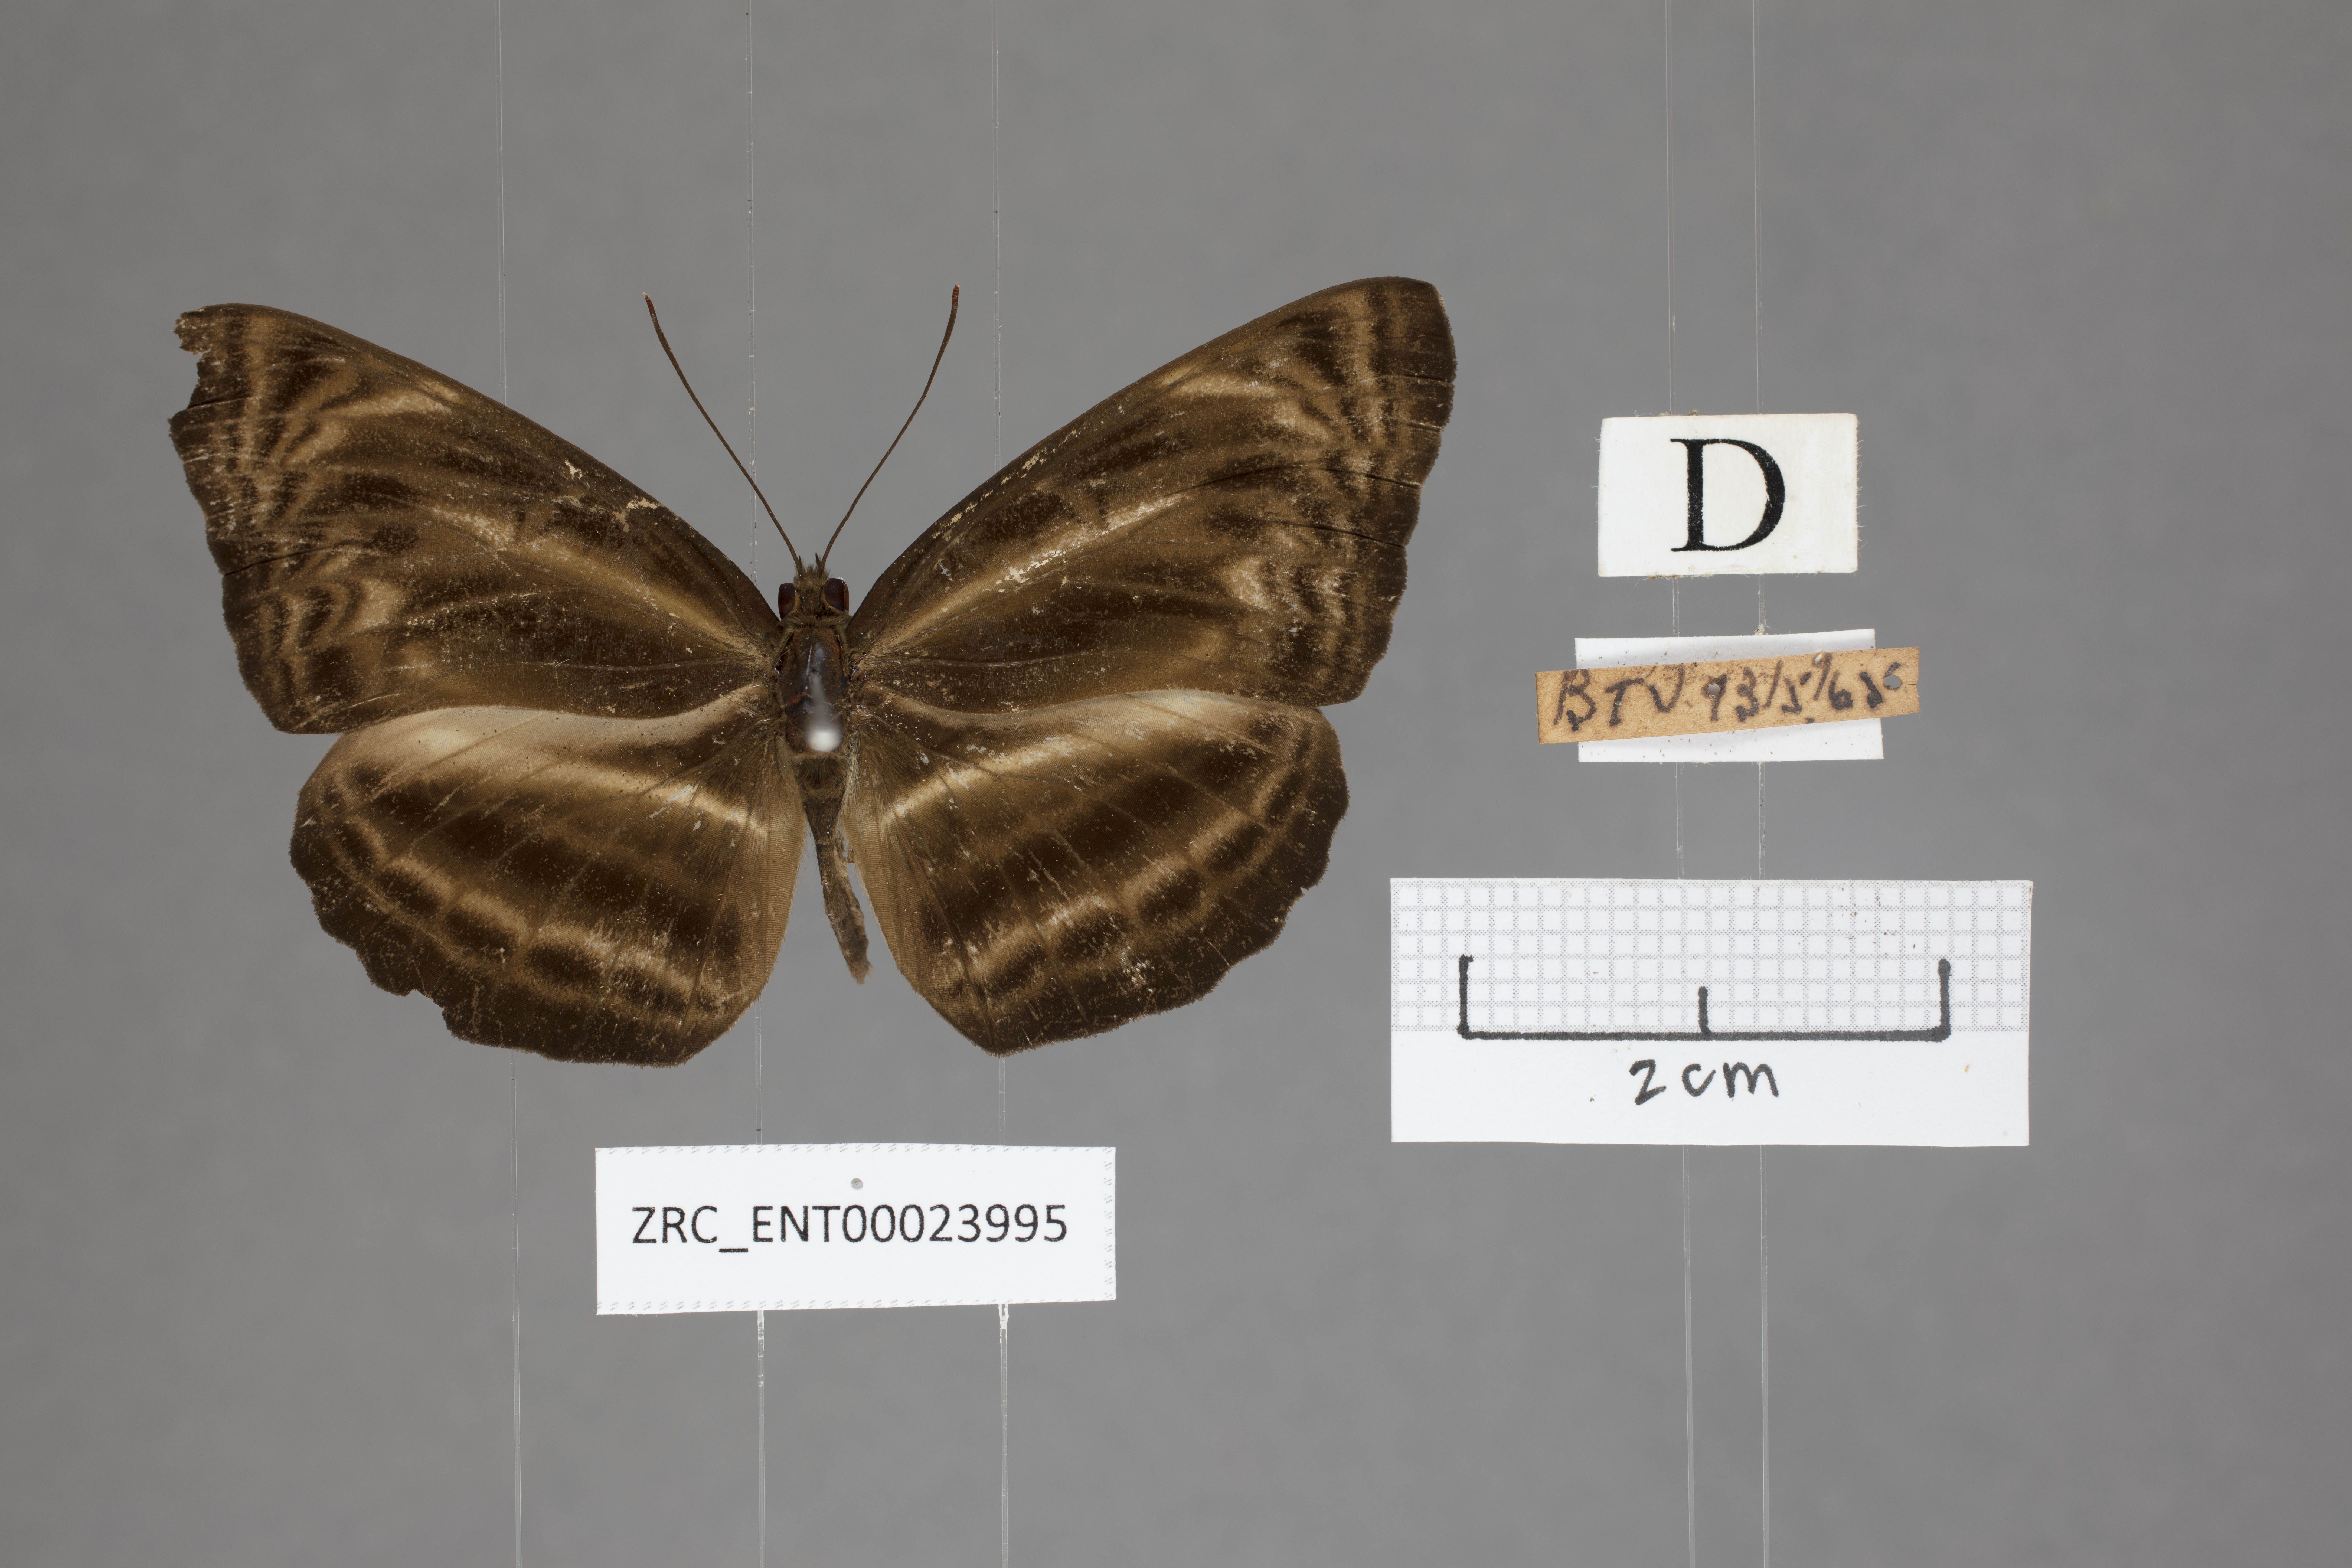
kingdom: Animalia
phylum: Arthropoda
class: Insecta
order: Lepidoptera
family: Nymphalidae
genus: Neptis
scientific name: Neptis harita
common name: Chocolate sailer
